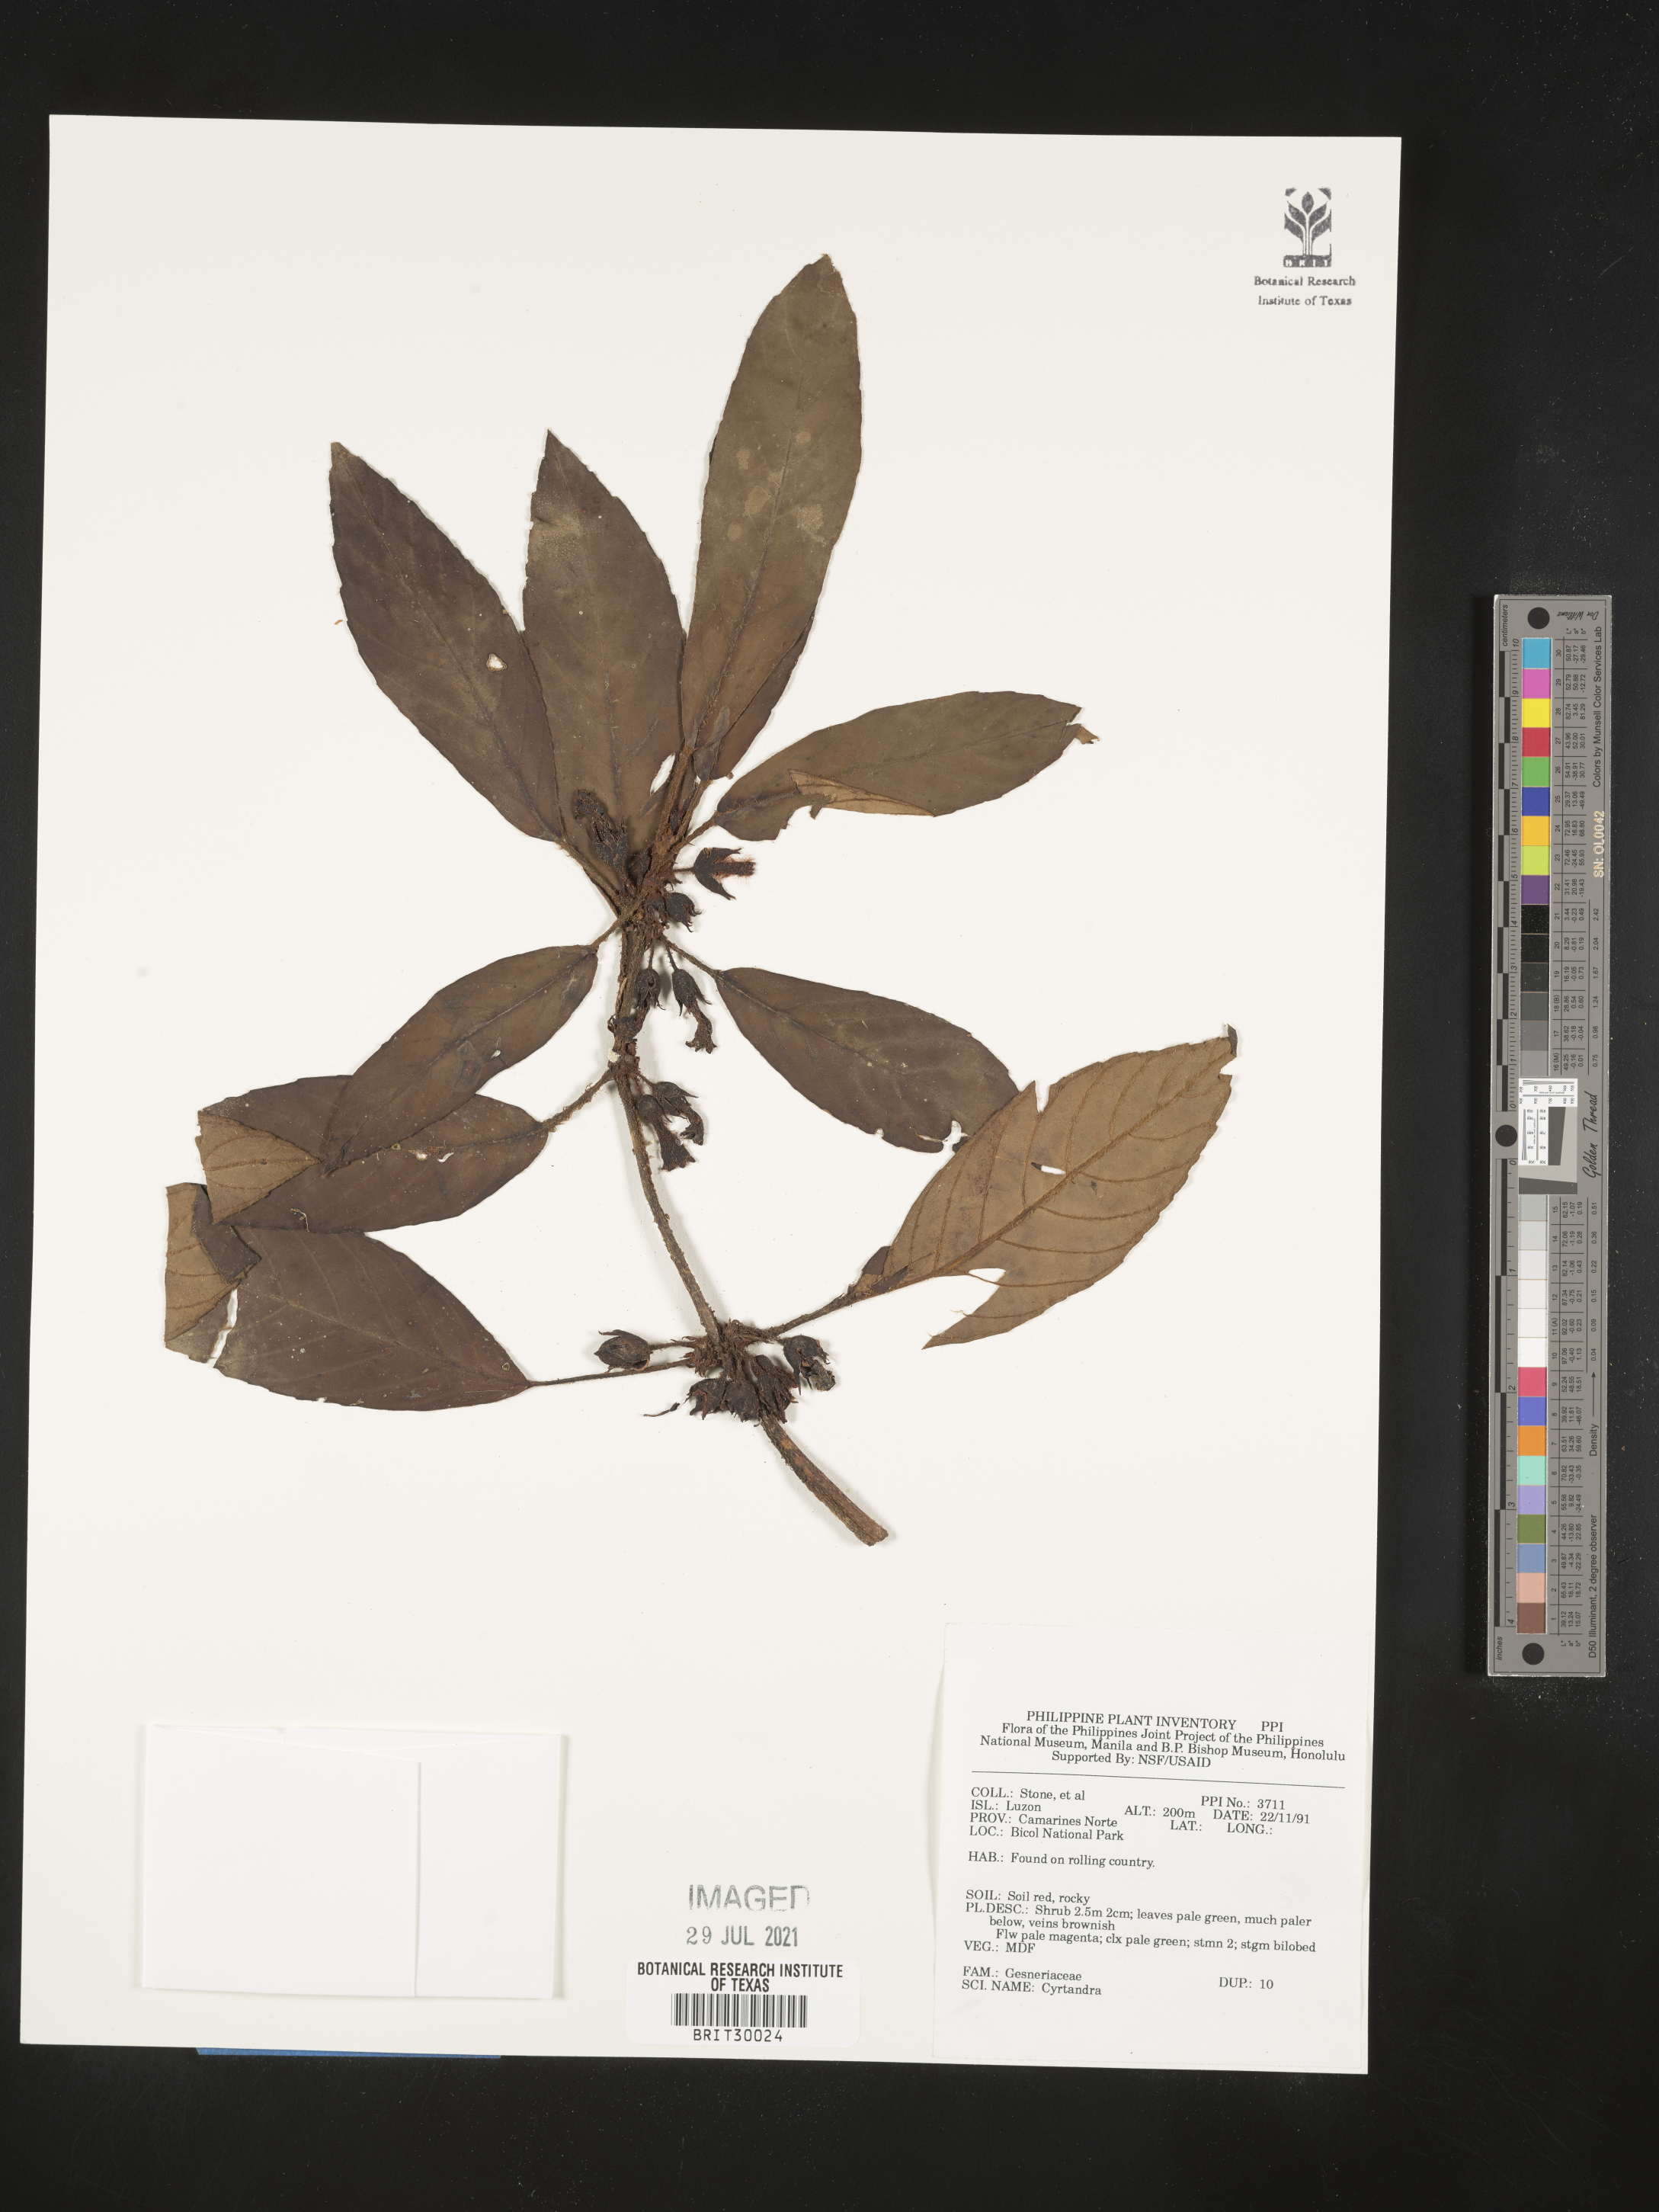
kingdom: Plantae
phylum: Tracheophyta
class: Magnoliopsida
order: Lamiales
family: Gesneriaceae
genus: Cyrtandra
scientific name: Cyrtandra
